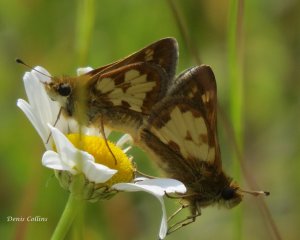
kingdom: Animalia
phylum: Arthropoda
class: Insecta
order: Lepidoptera
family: Hesperiidae
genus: Polites
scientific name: Polites coras
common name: Peck's Skipper
